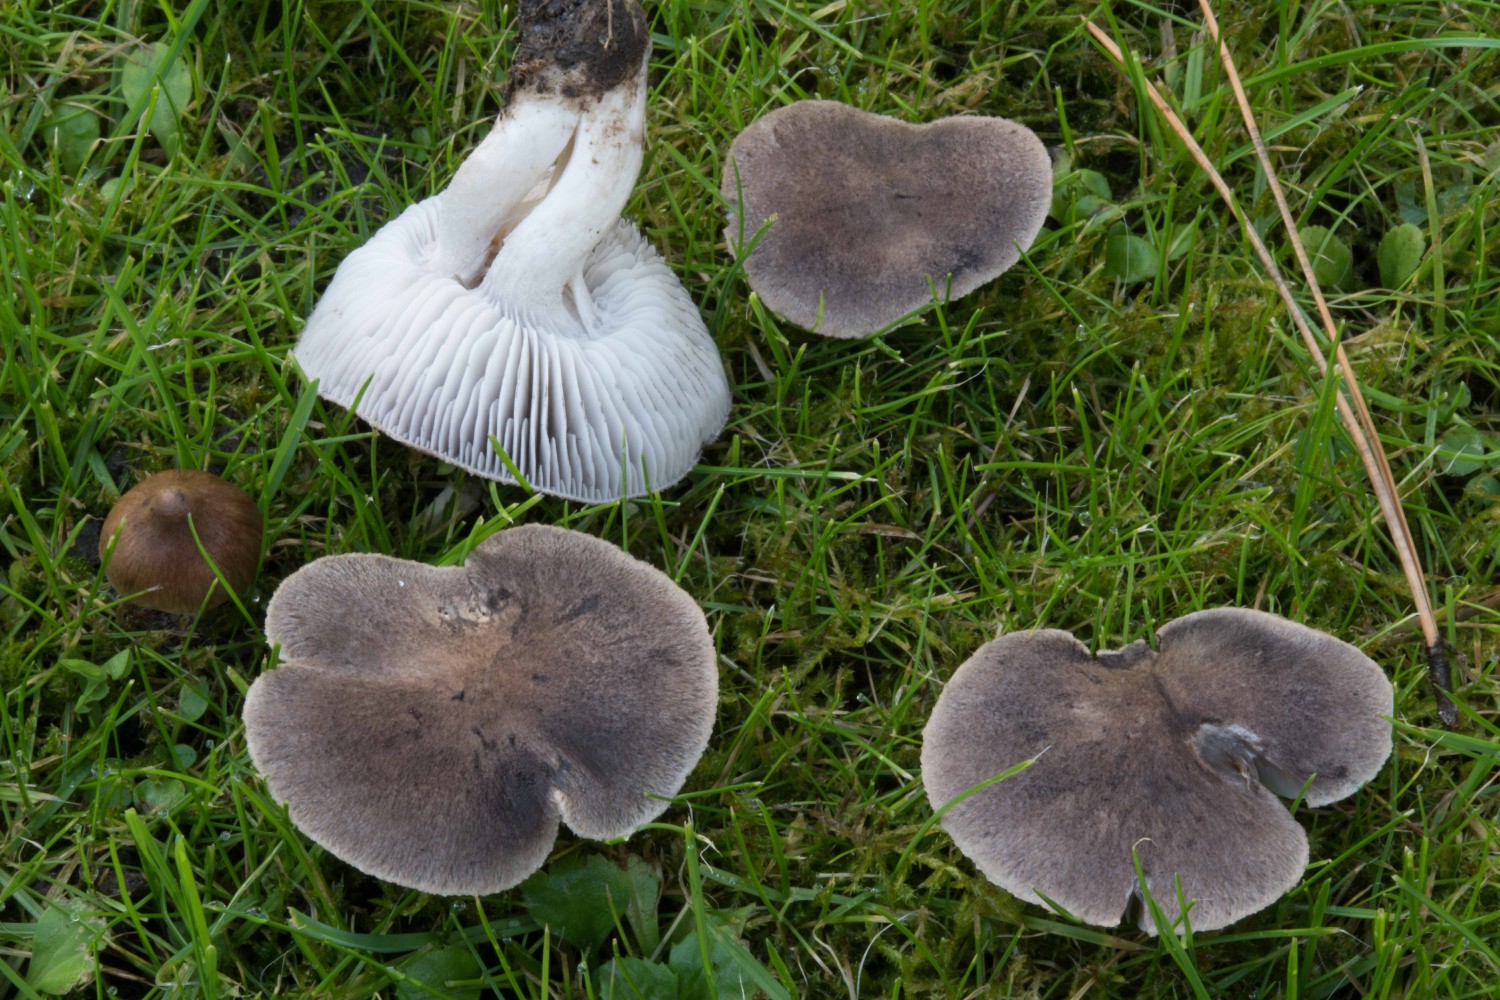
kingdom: Fungi
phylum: Basidiomycota
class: Agaricomycetes
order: Agaricales
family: Tricholomataceae
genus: Tricholoma
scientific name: Tricholoma terreum
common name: jordfarvet ridderhat
